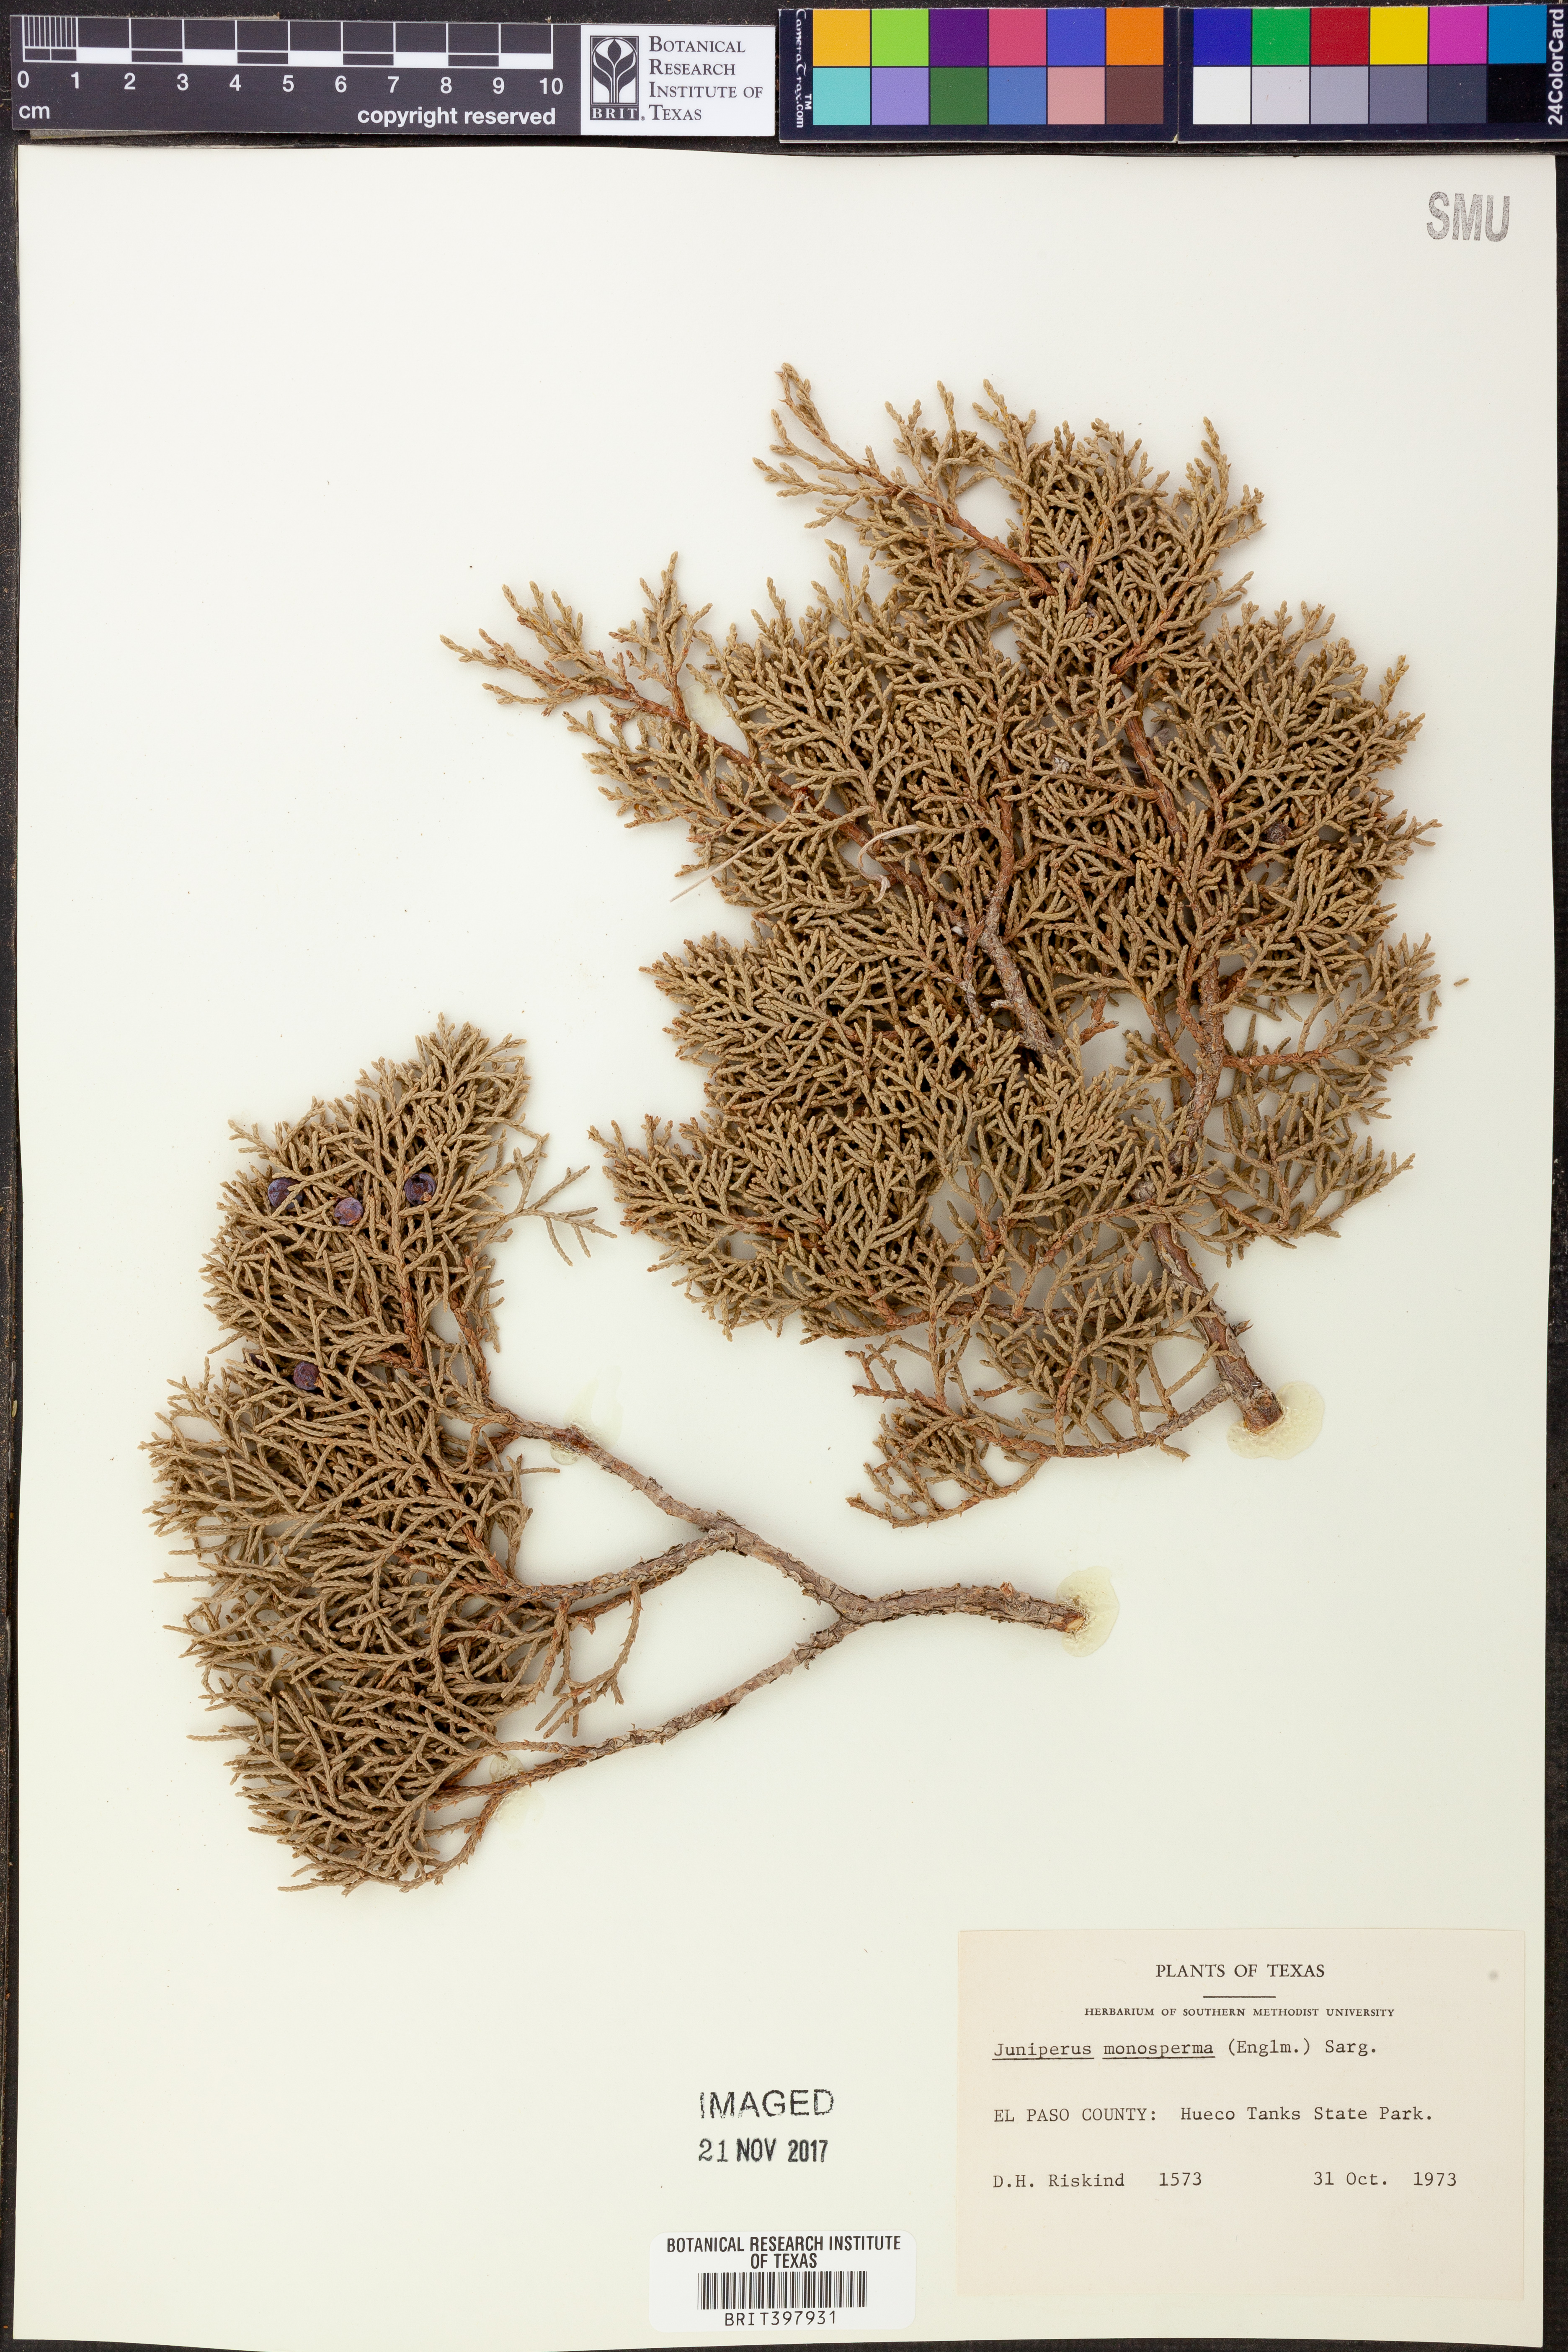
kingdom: Plantae
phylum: Tracheophyta
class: Pinopsida
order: Pinales
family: Cupressaceae
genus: Juniperus
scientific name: Juniperus monosperma
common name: One-seed juniper
